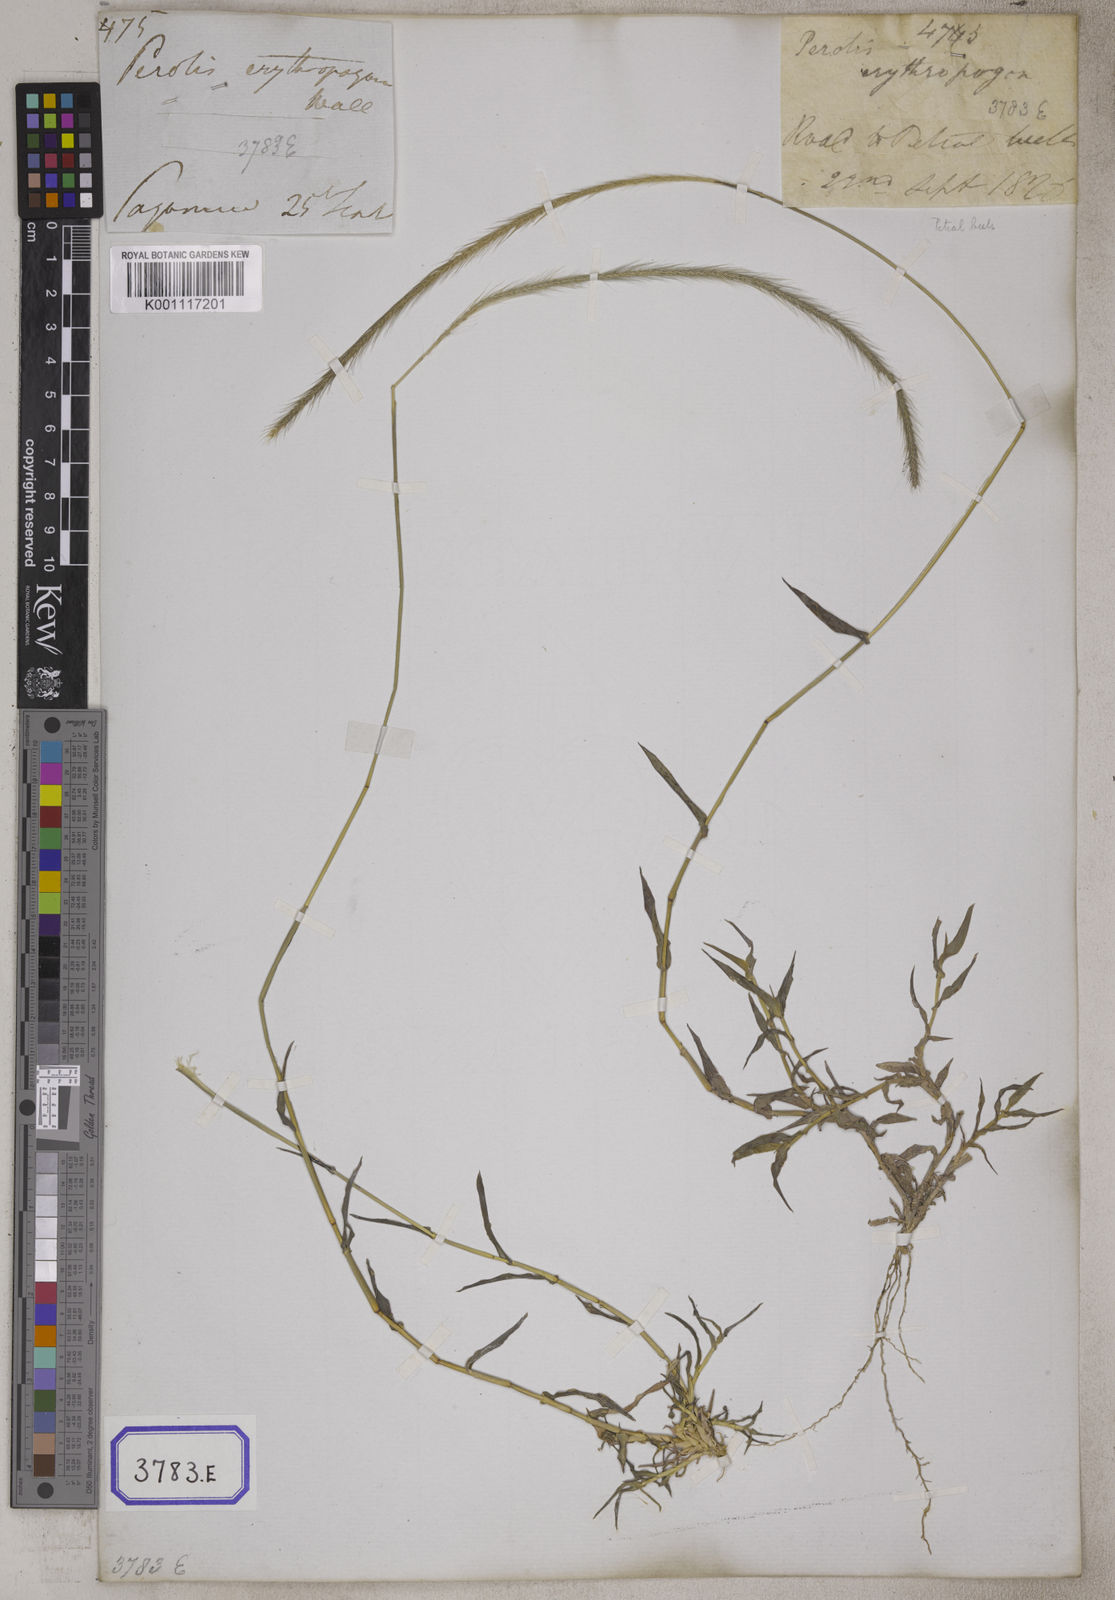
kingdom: Plantae
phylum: Tracheophyta
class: Liliopsida
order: Poales
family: Poaceae
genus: Perotis
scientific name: Perotis indica
